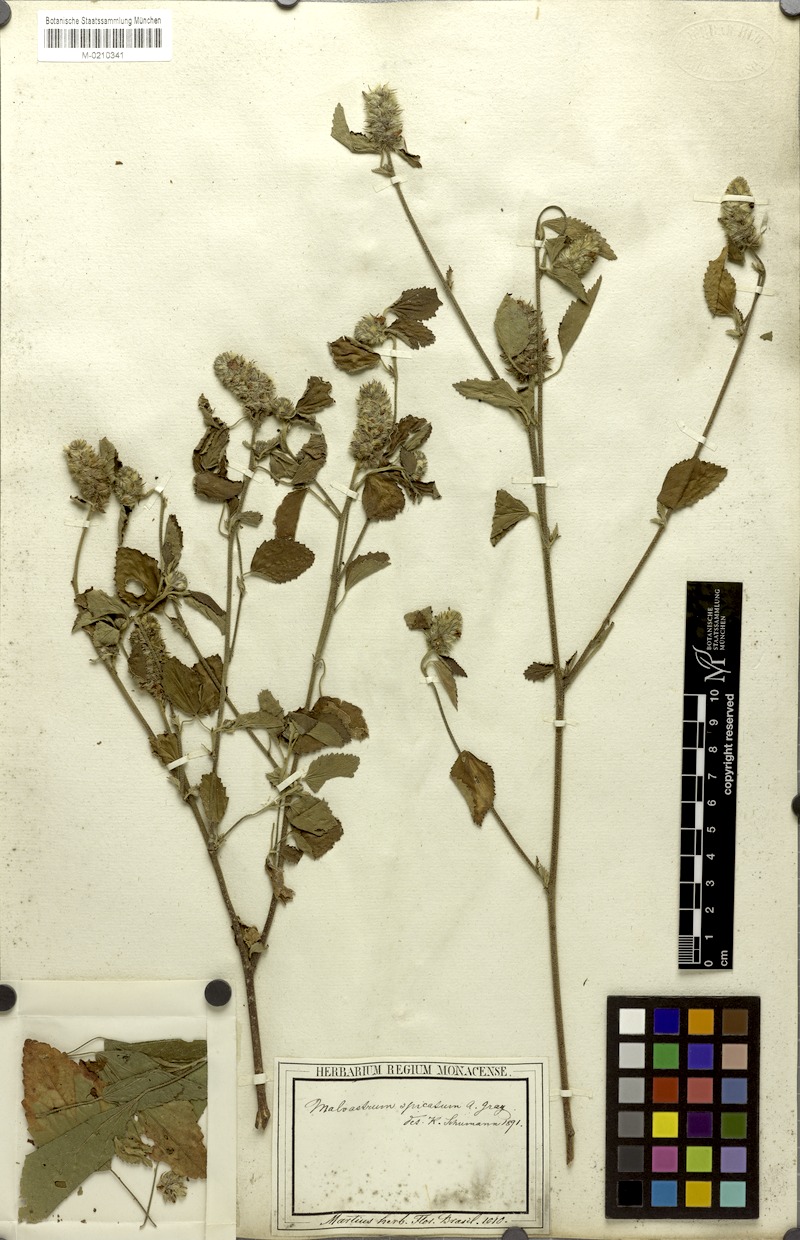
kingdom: Plantae
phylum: Tracheophyta
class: Magnoliopsida
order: Malvales
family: Malvaceae
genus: Melochia
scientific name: Melochia spicata
